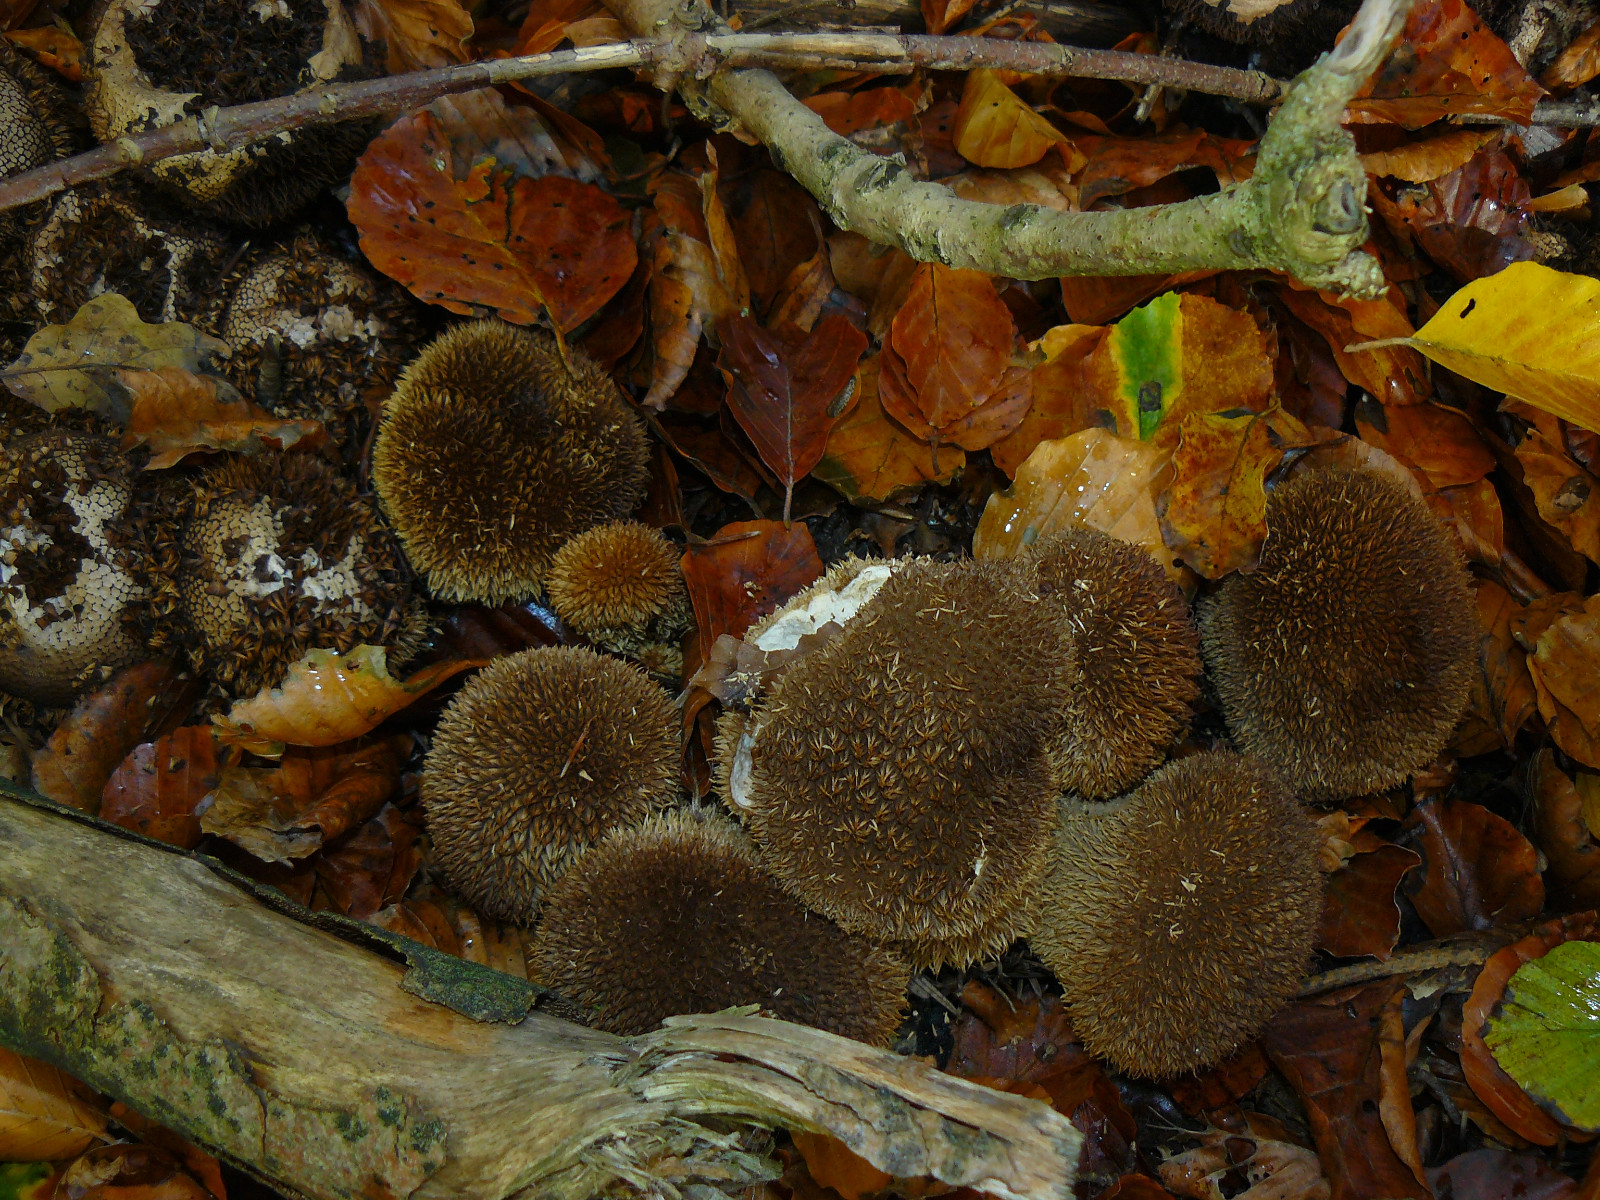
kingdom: Fungi
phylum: Basidiomycota
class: Agaricomycetes
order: Agaricales
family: Lycoperdaceae
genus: Lycoperdon
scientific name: Lycoperdon echinatum
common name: pindsvine-støvbold
